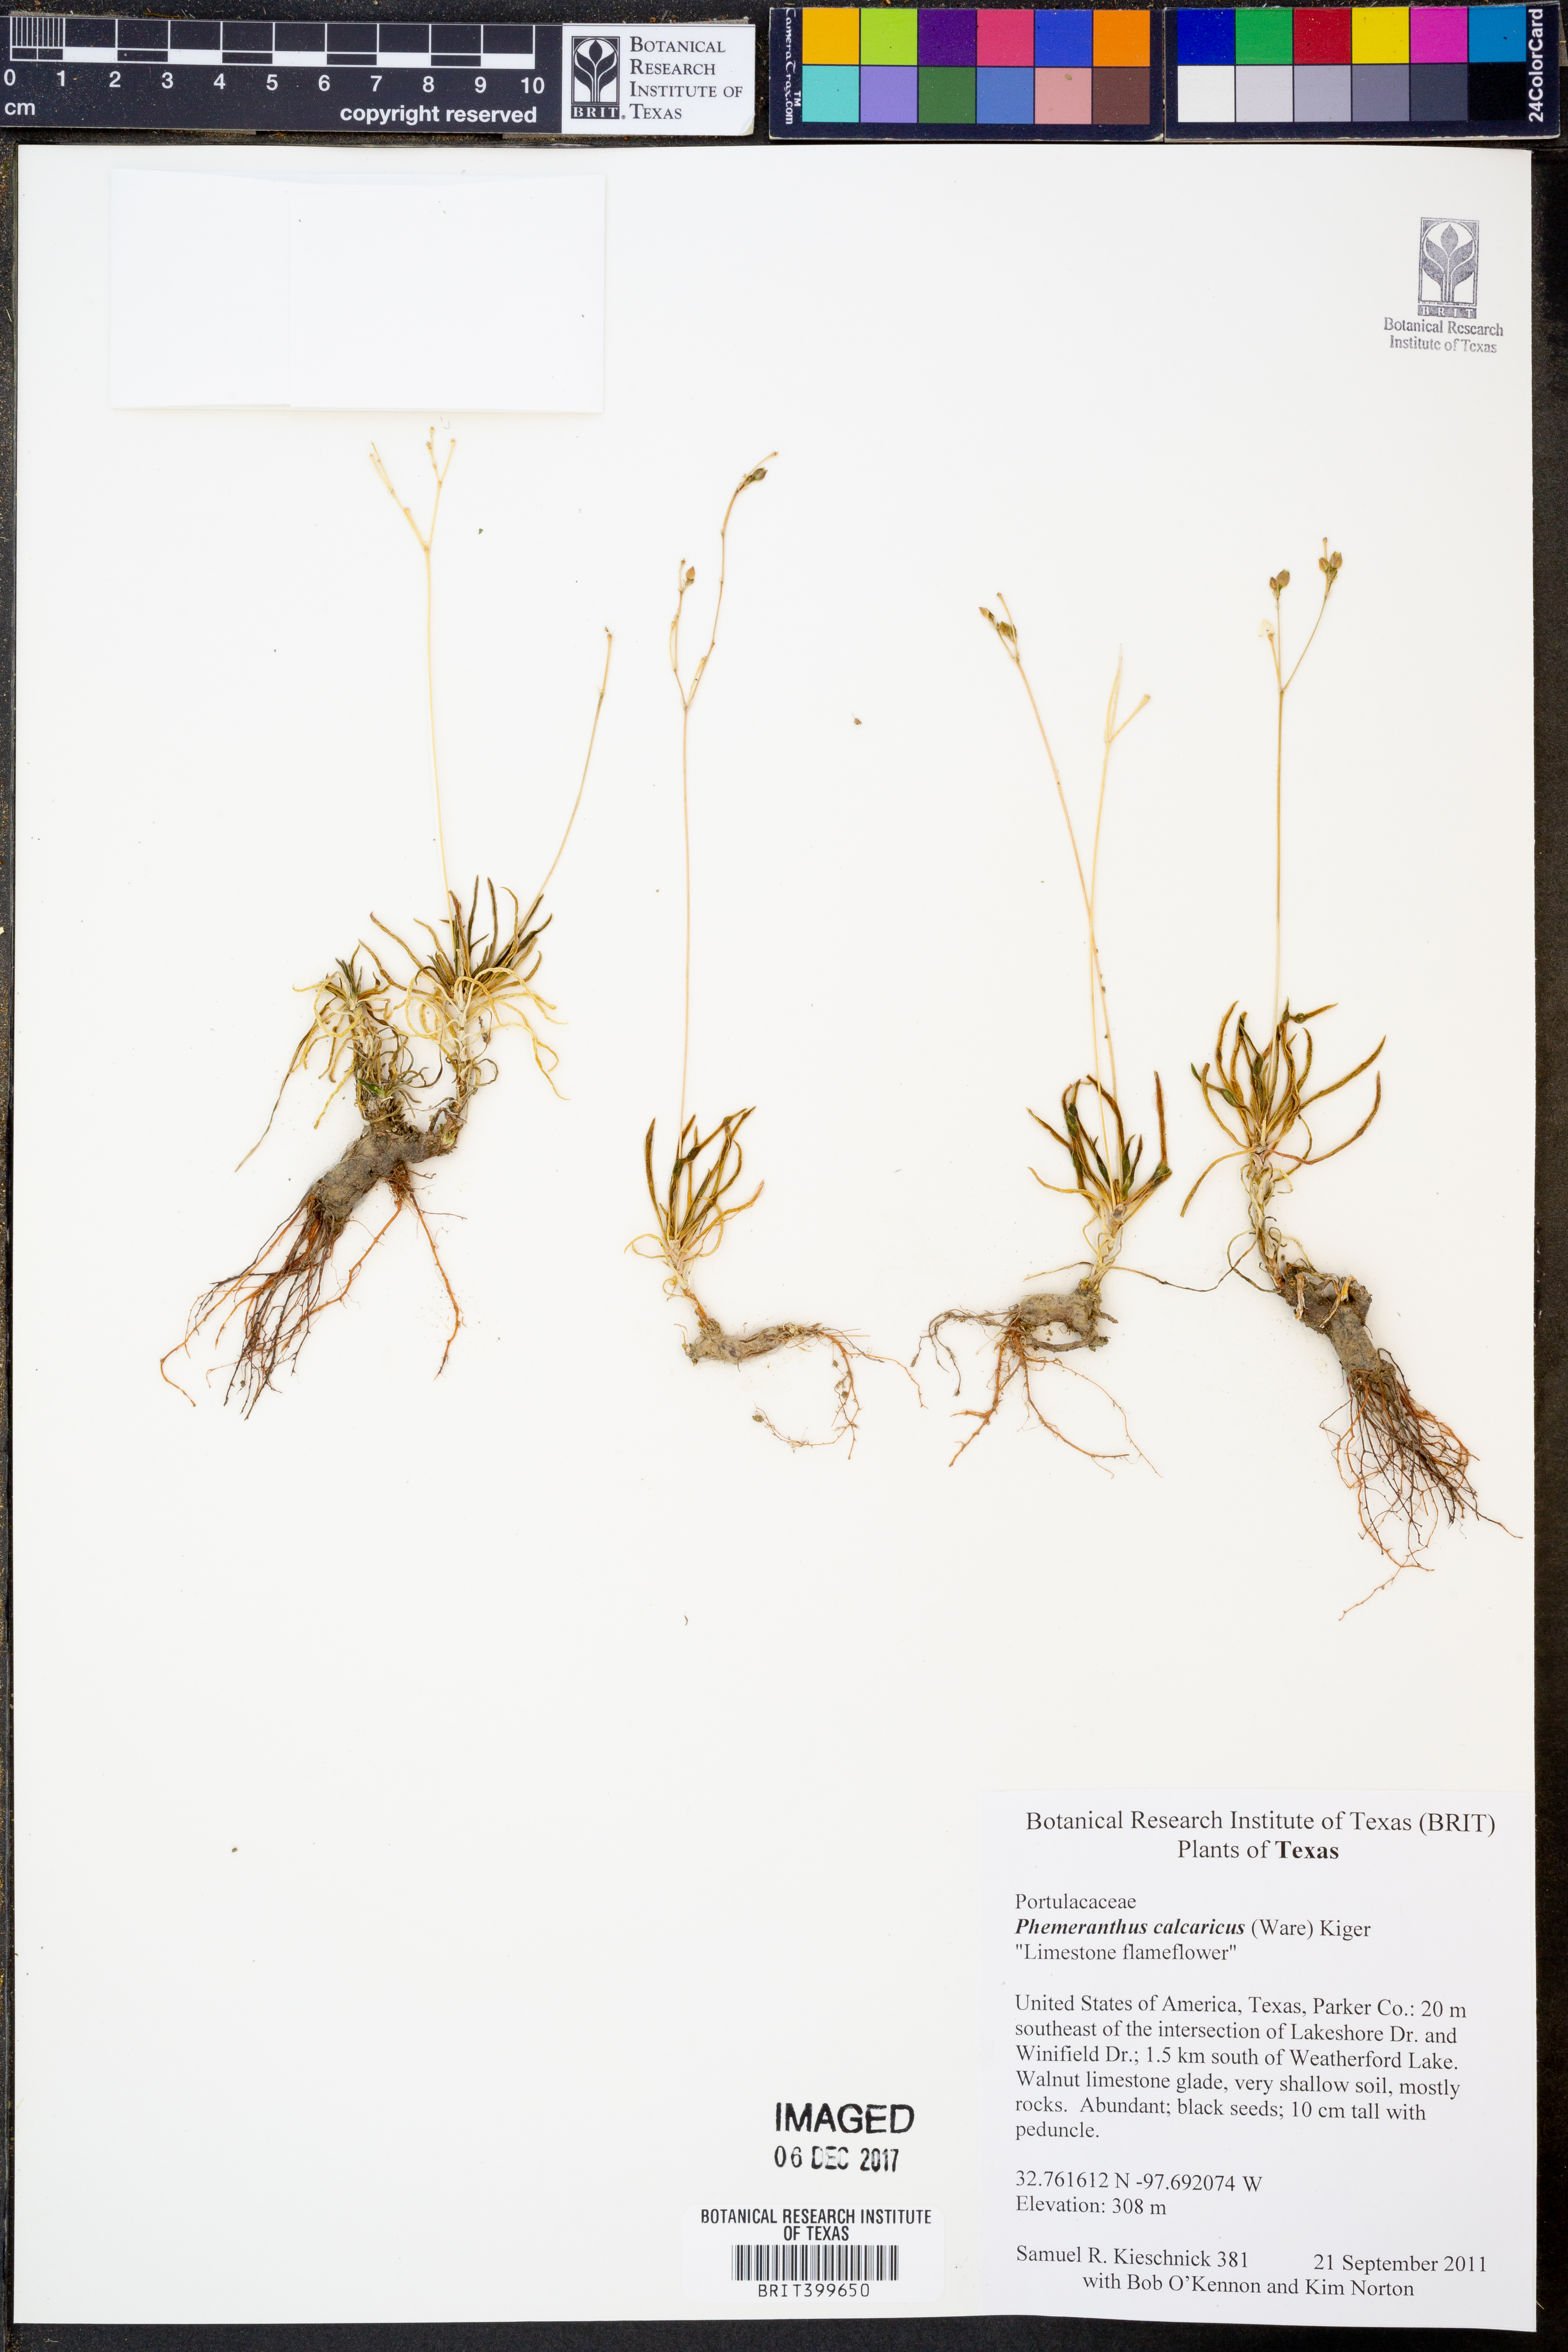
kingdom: Plantae
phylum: Tracheophyta
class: Magnoliopsida
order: Caryophyllales
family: Montiaceae
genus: Phemeranthus
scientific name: Phemeranthus calcaricus
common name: Limestone fameflower
